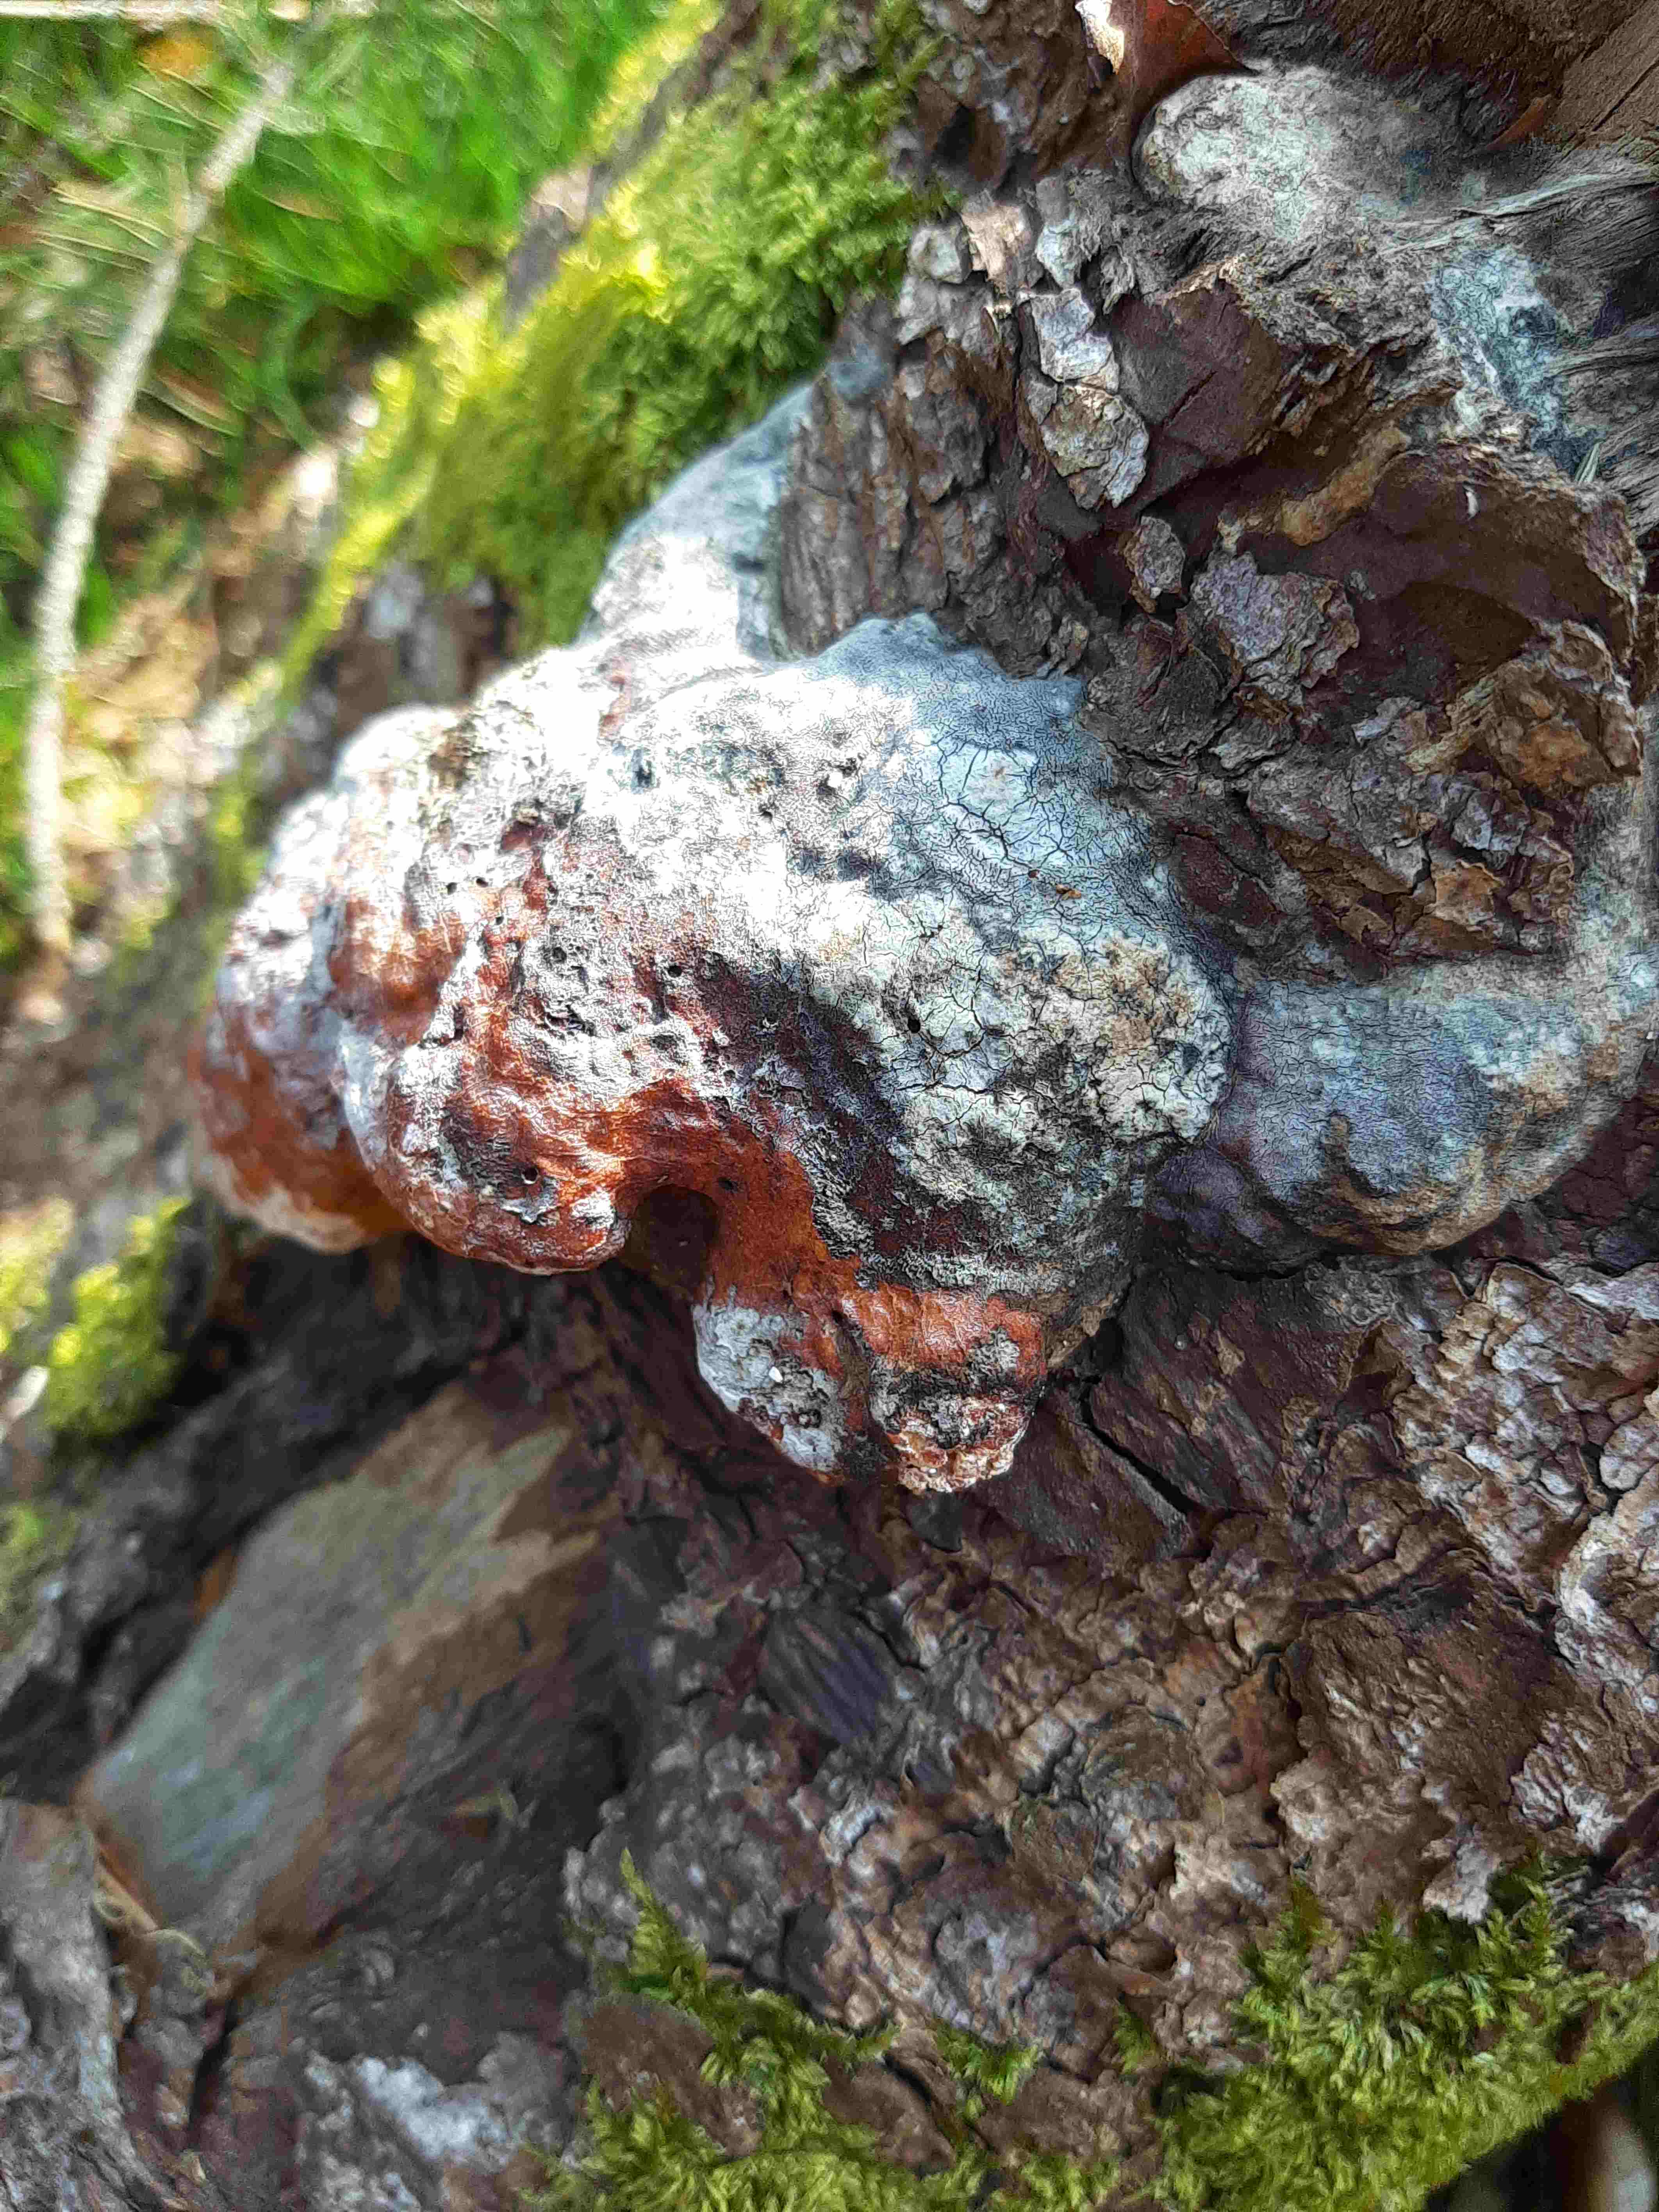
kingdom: Fungi
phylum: Basidiomycota
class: Agaricomycetes
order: Polyporales
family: Fomitopsidaceae
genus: Fomitopsis
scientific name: Fomitopsis pinicola
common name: randbæltet hovporesvamp
